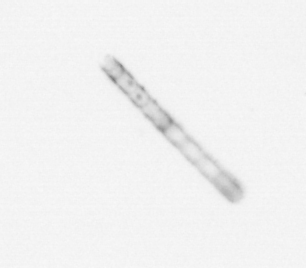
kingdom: Chromista
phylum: Ochrophyta
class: Bacillariophyceae
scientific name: Bacillariophyceae
